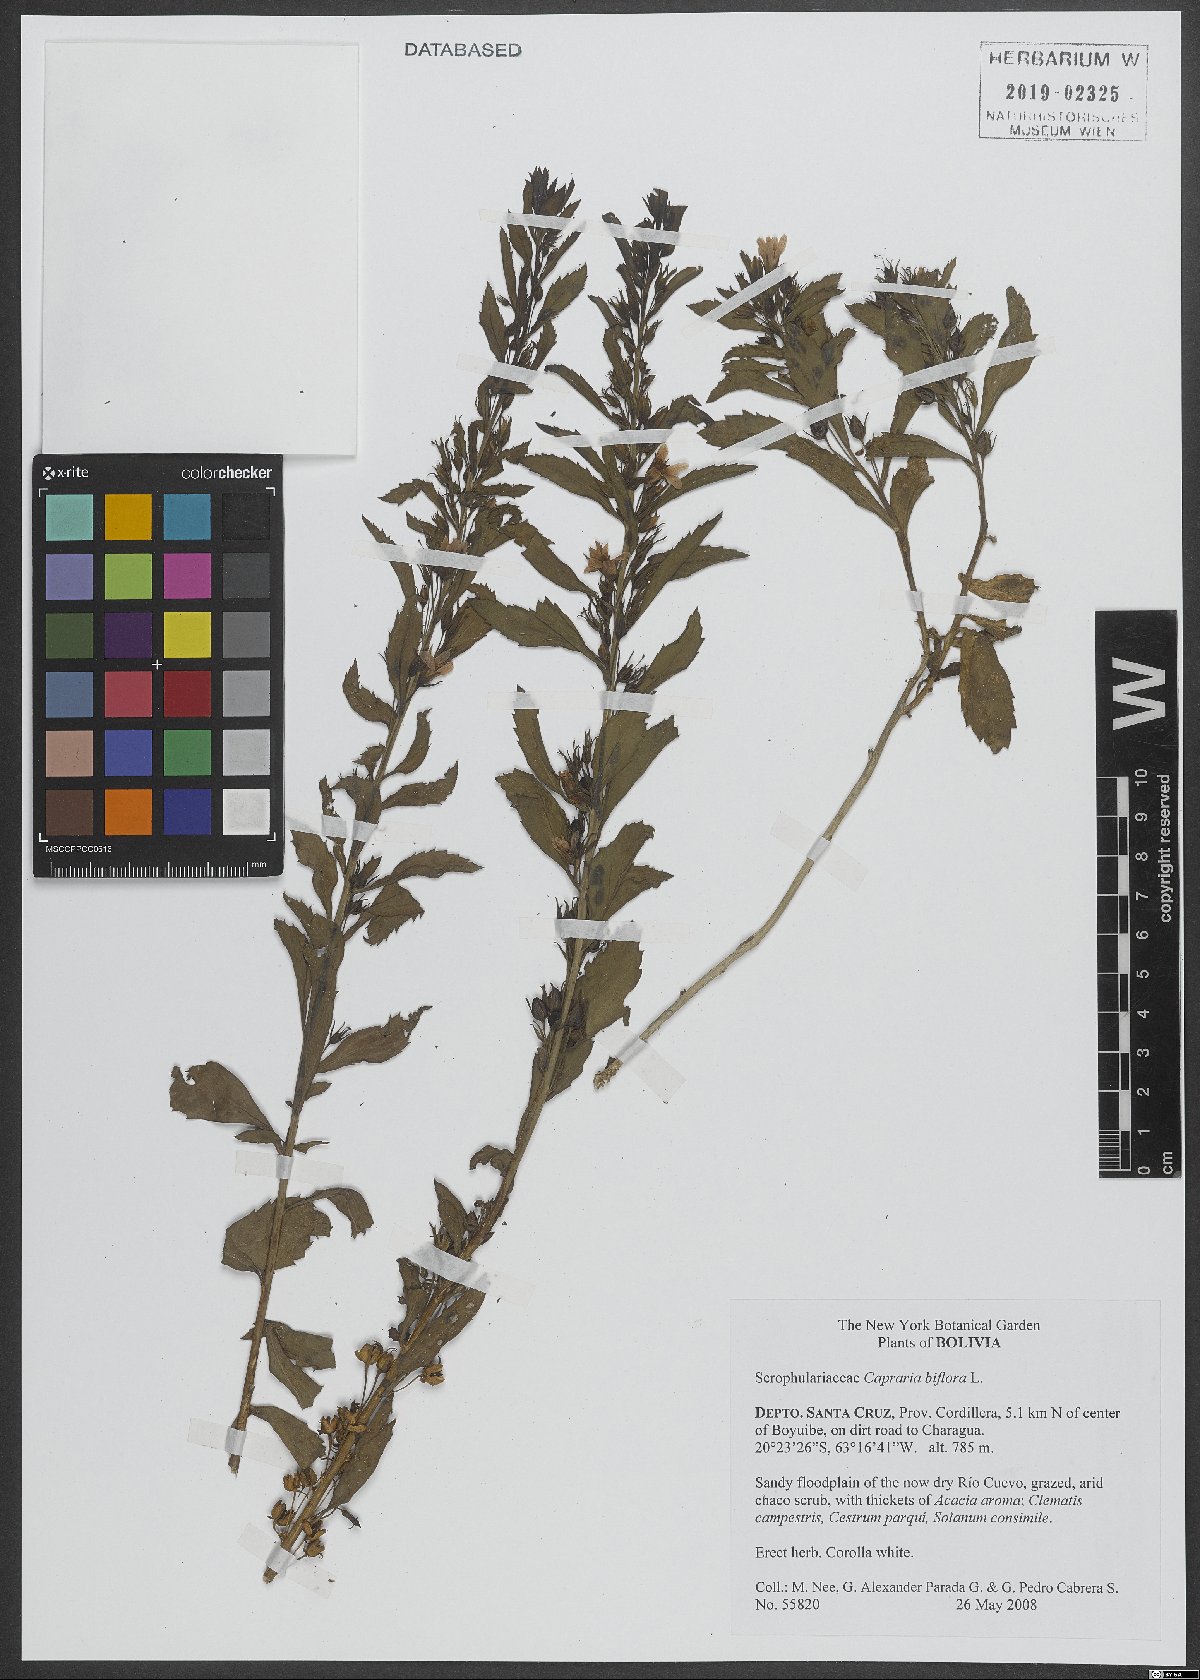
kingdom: Plantae
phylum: Tracheophyta
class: Magnoliopsida
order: Lamiales
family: Scrophulariaceae
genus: Capraria
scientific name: Capraria biflora
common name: Goatweed
